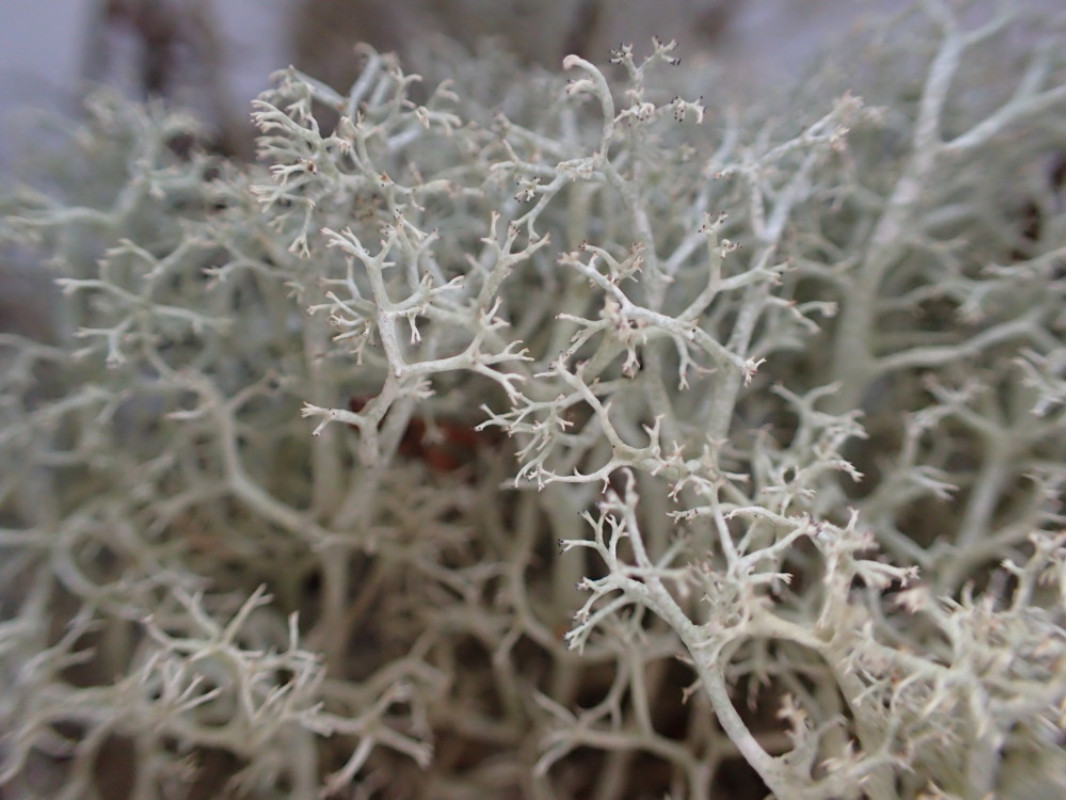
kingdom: Fungi
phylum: Ascomycota
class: Lecanoromycetes
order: Lecanorales
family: Cladoniaceae
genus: Cladonia
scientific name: Cladonia portentosa
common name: hede-rensdyrlav
